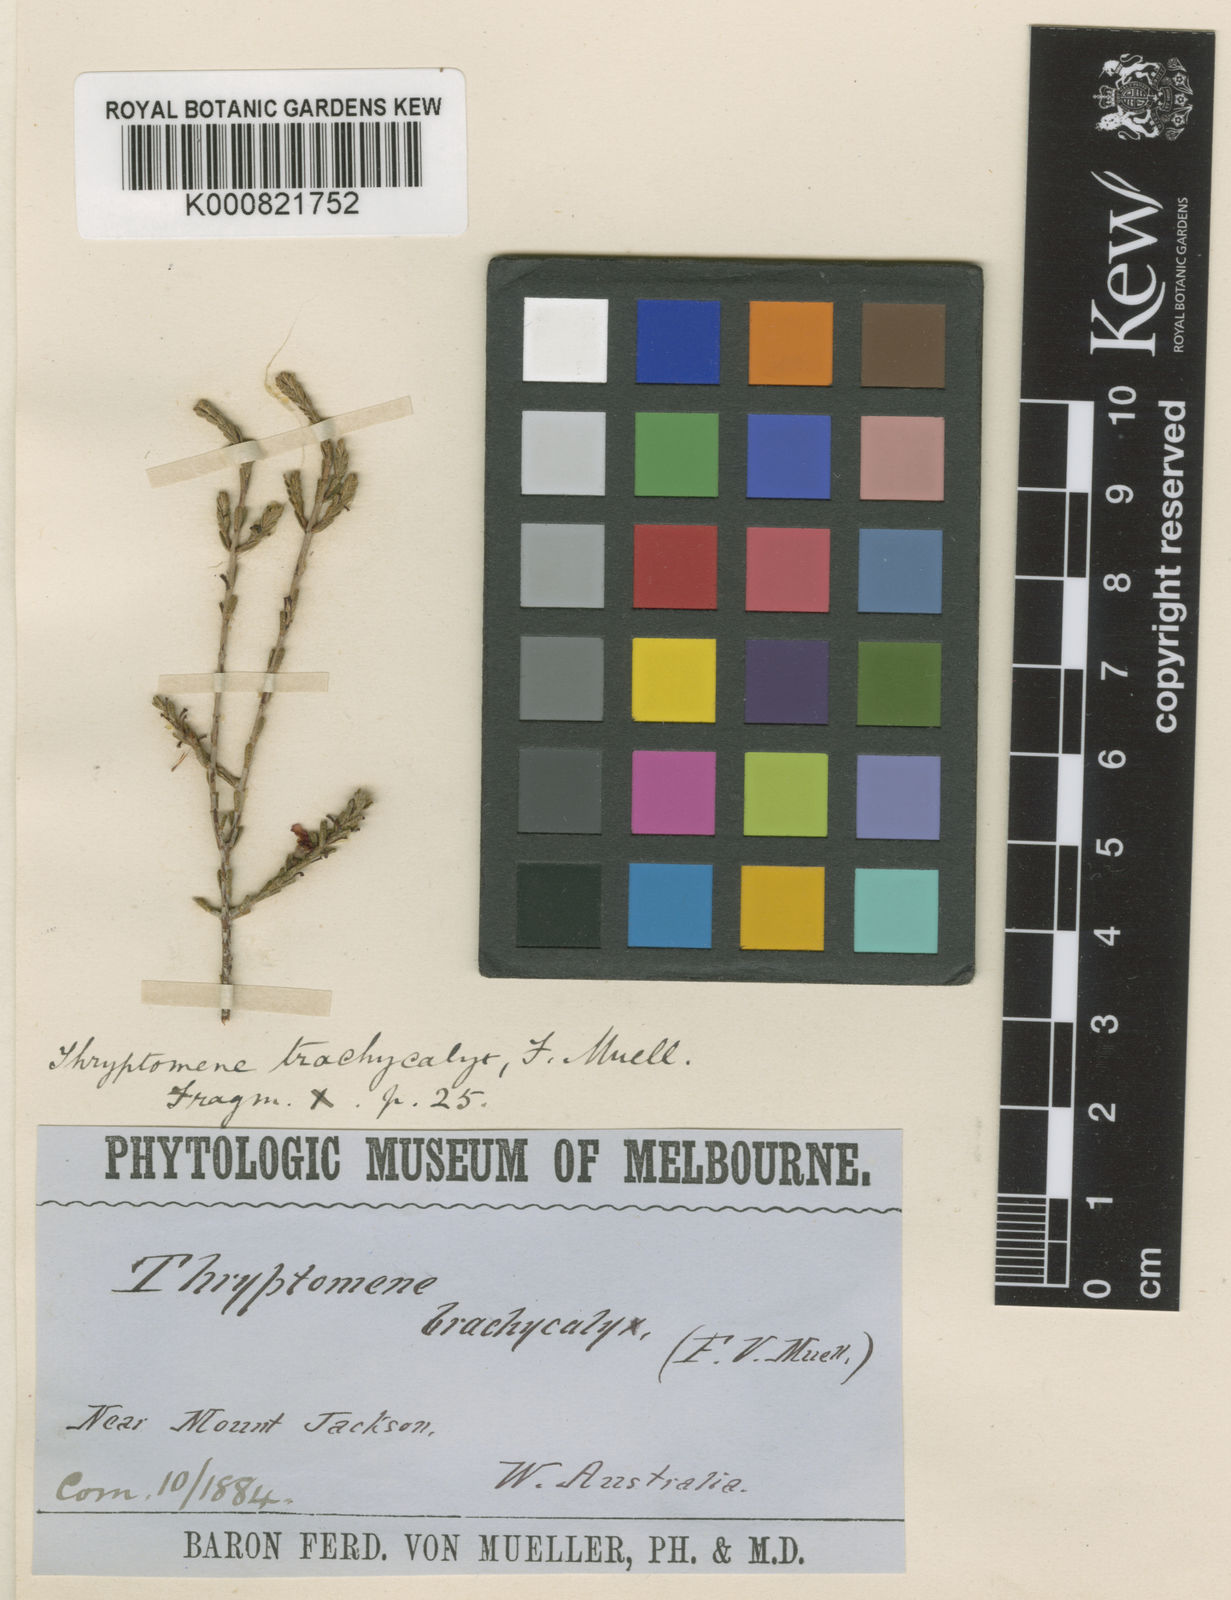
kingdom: Plantae
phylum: Tracheophyta
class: Magnoliopsida
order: Myrtales
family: Myrtaceae
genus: Micromyrtus
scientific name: Micromyrtus flaviflora
